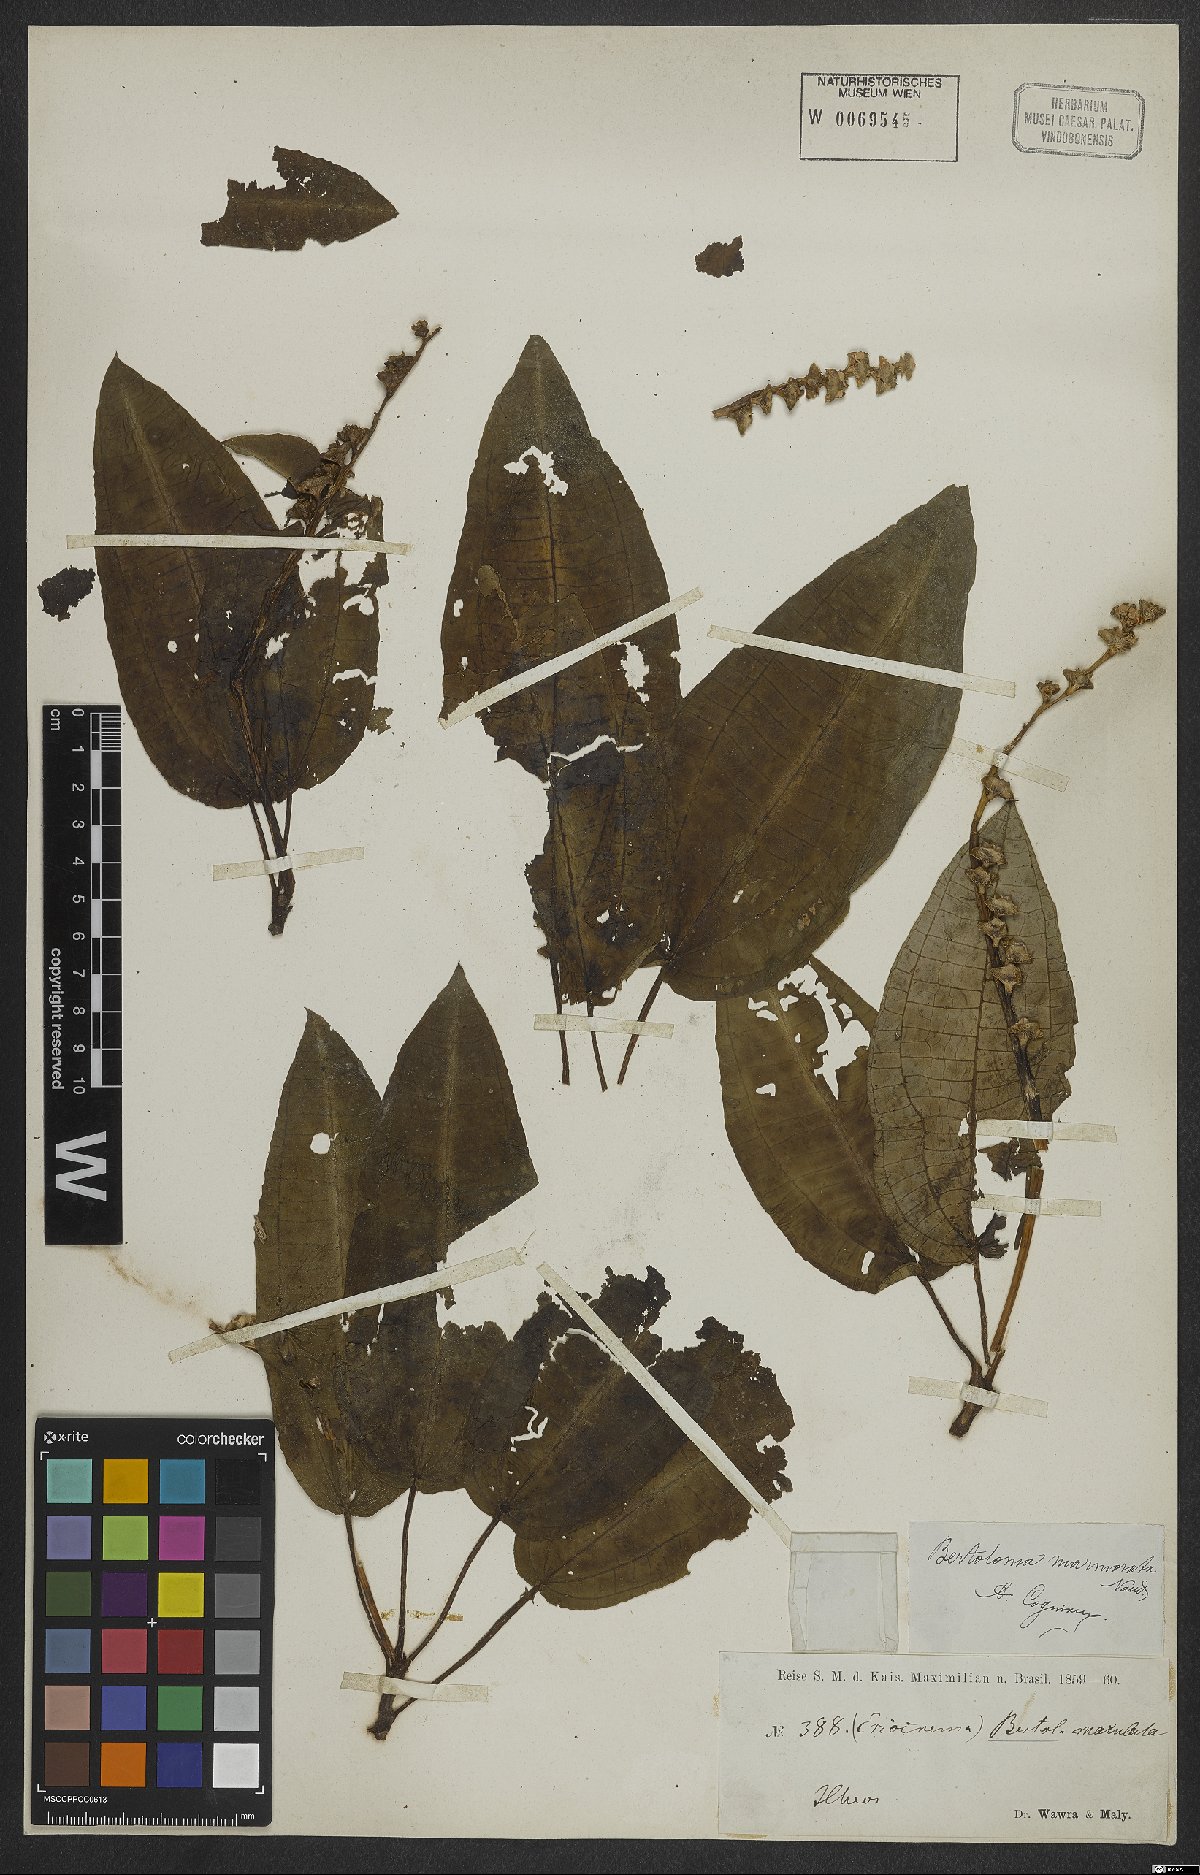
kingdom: Plantae
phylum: Tracheophyta
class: Magnoliopsida
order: Myrtales
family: Melastomataceae
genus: Bertolonia
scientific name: Bertolonia marmorata
